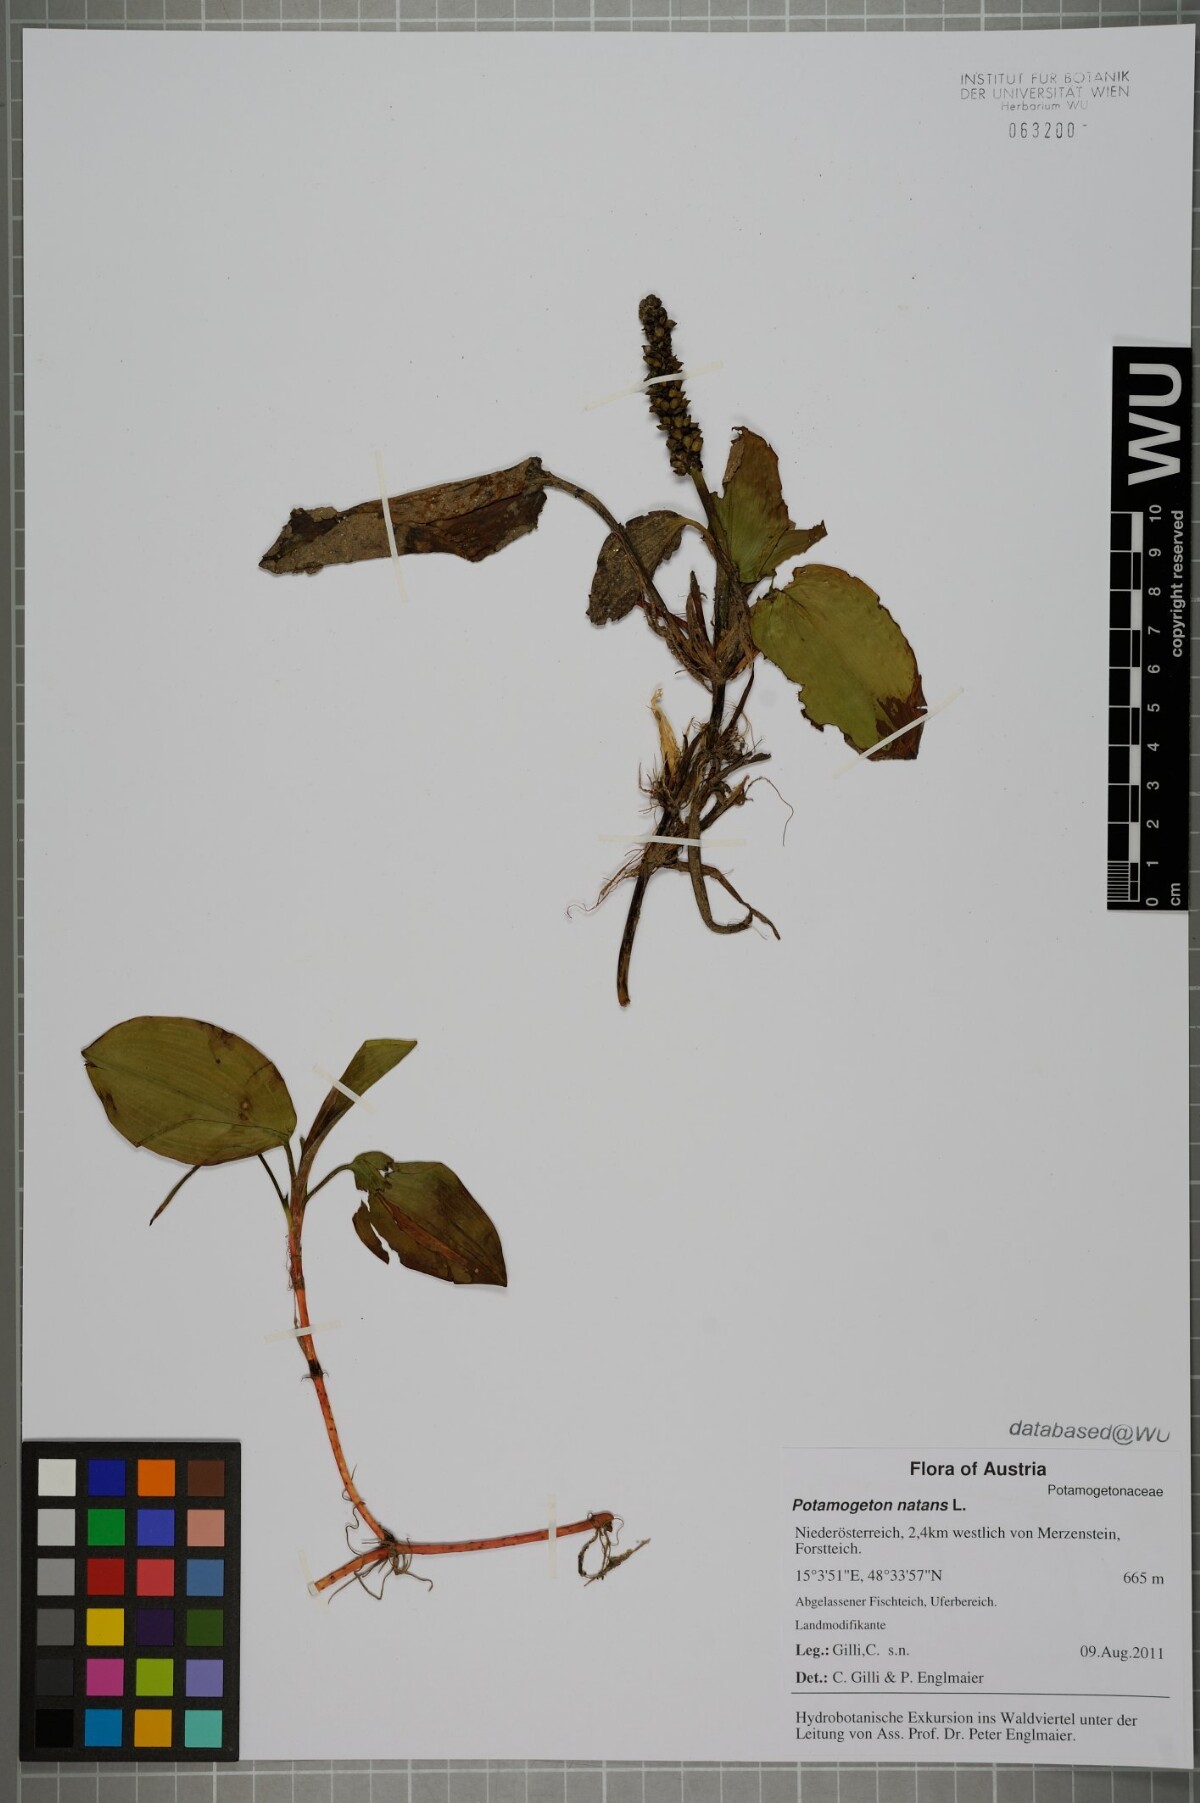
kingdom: Plantae
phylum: Tracheophyta
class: Liliopsida
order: Alismatales
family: Potamogetonaceae
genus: Potamogeton
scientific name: Potamogeton natans
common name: Broad-leaved pondweed
